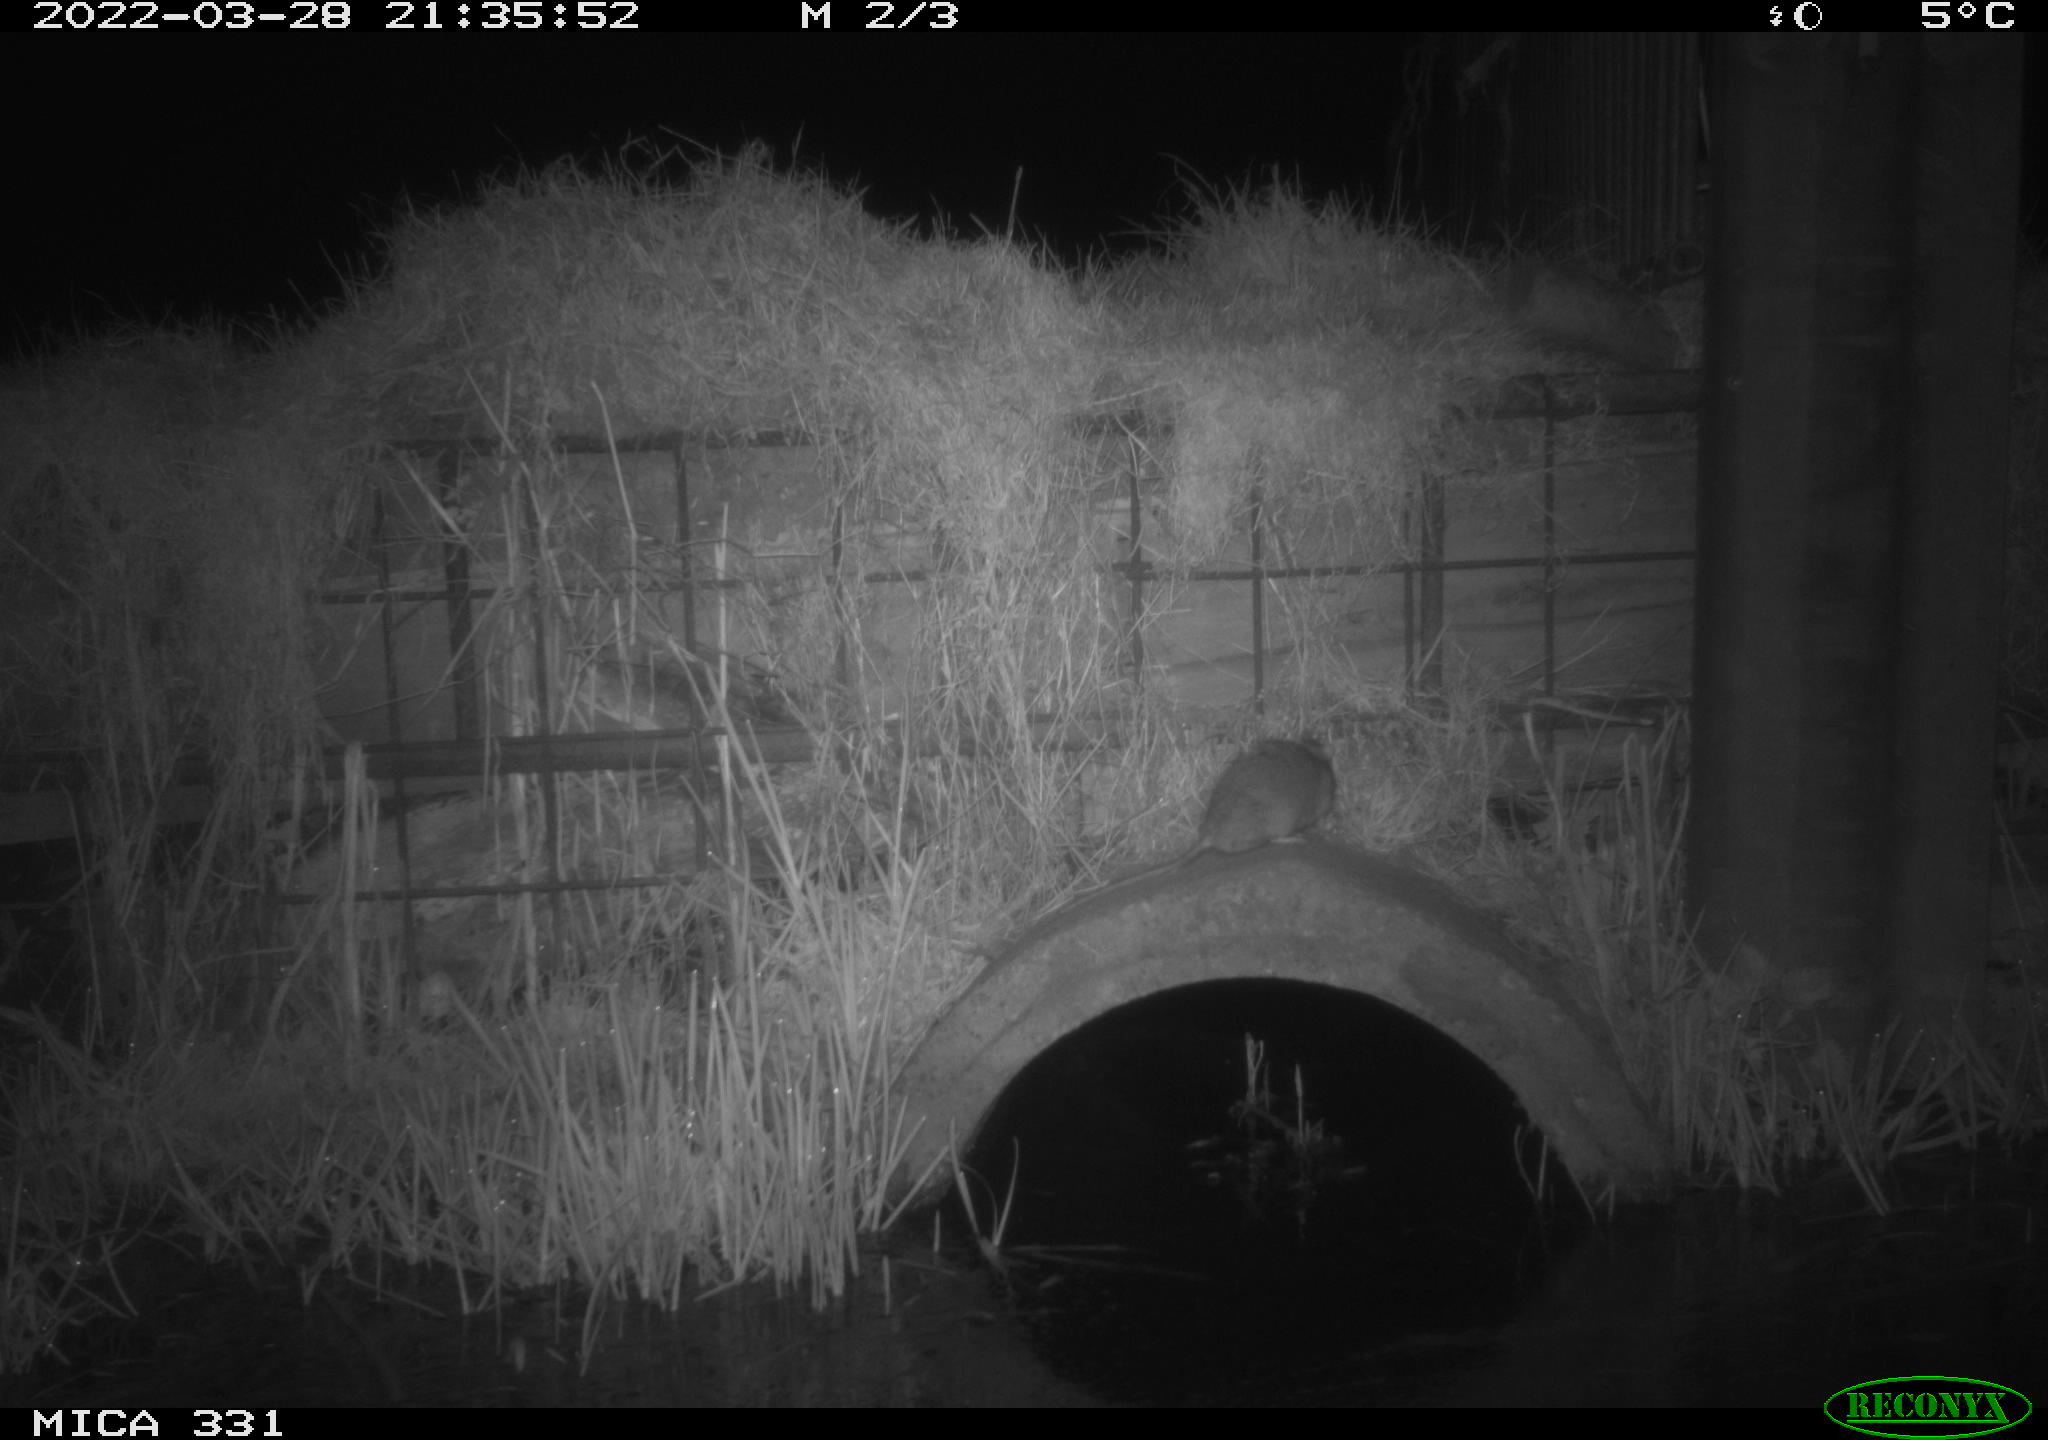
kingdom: Animalia
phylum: Chordata
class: Mammalia
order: Rodentia
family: Muridae
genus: Rattus
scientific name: Rattus norvegicus
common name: Brown rat
